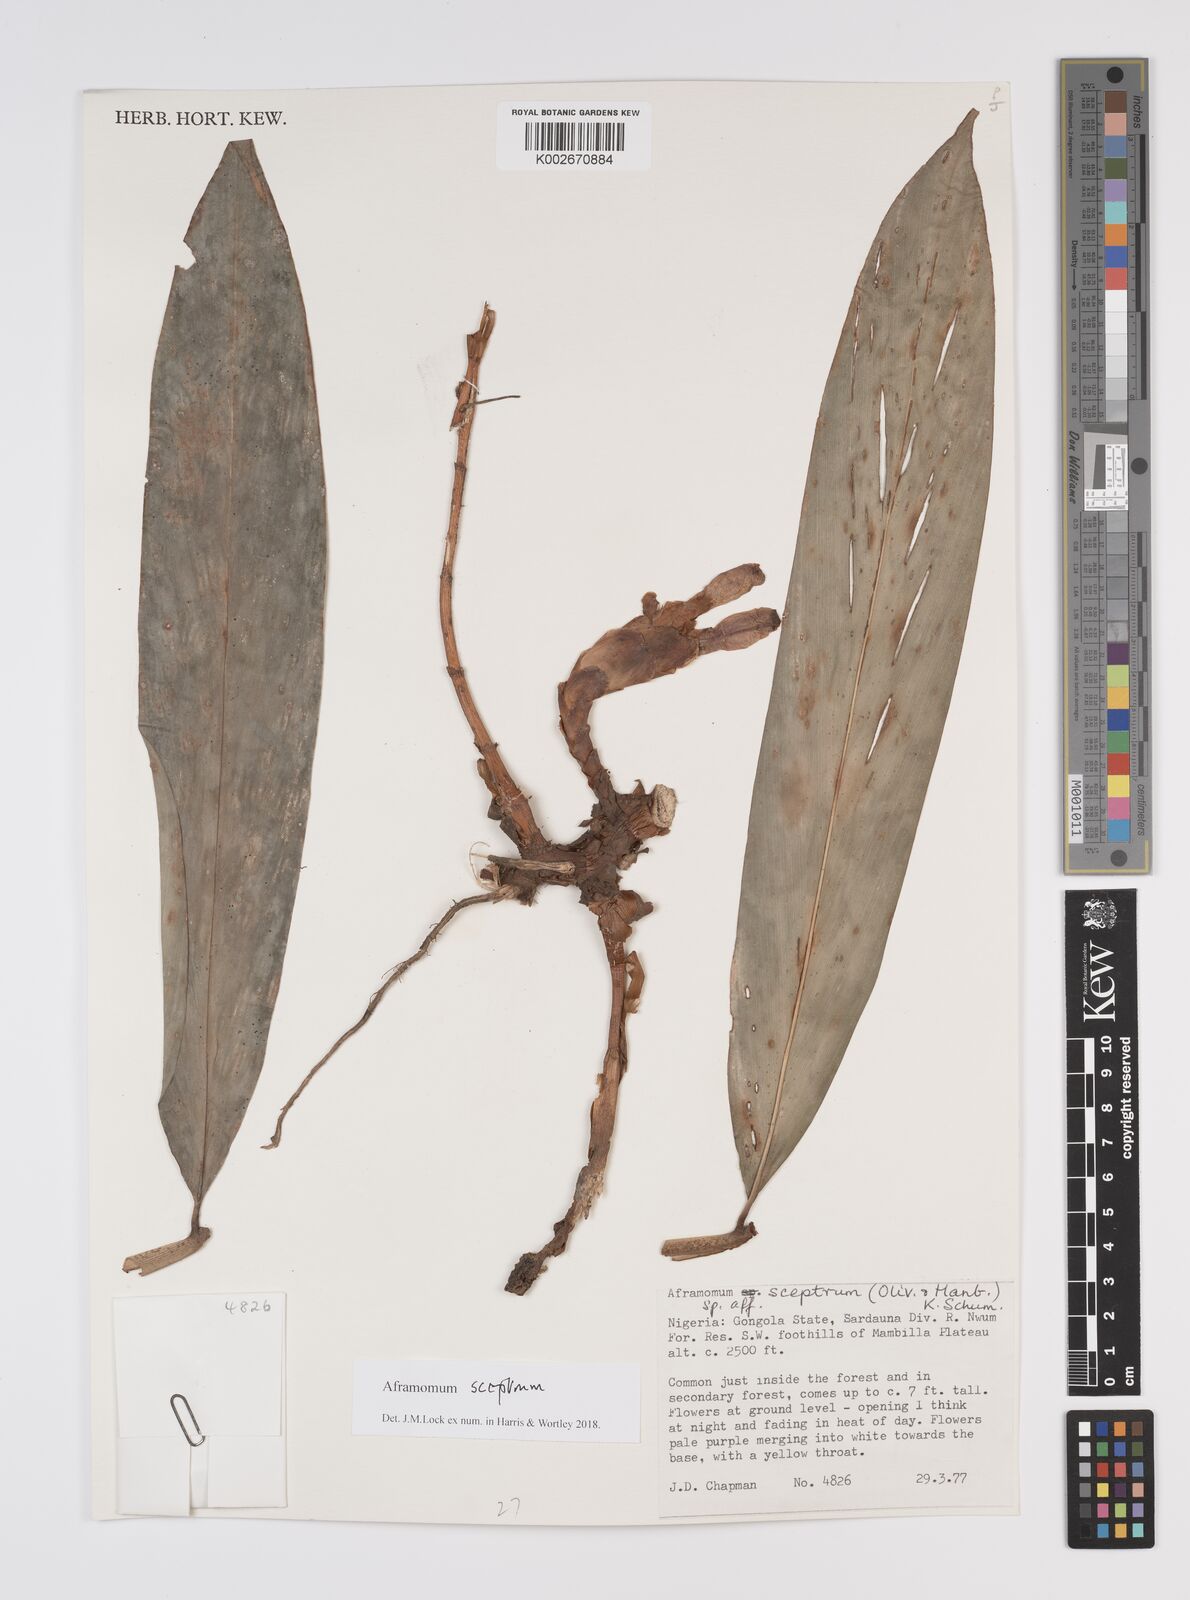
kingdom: Plantae
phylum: Tracheophyta
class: Liliopsida
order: Zingiberales
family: Zingiberaceae
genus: Aframomum
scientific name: Aframomum cereum
